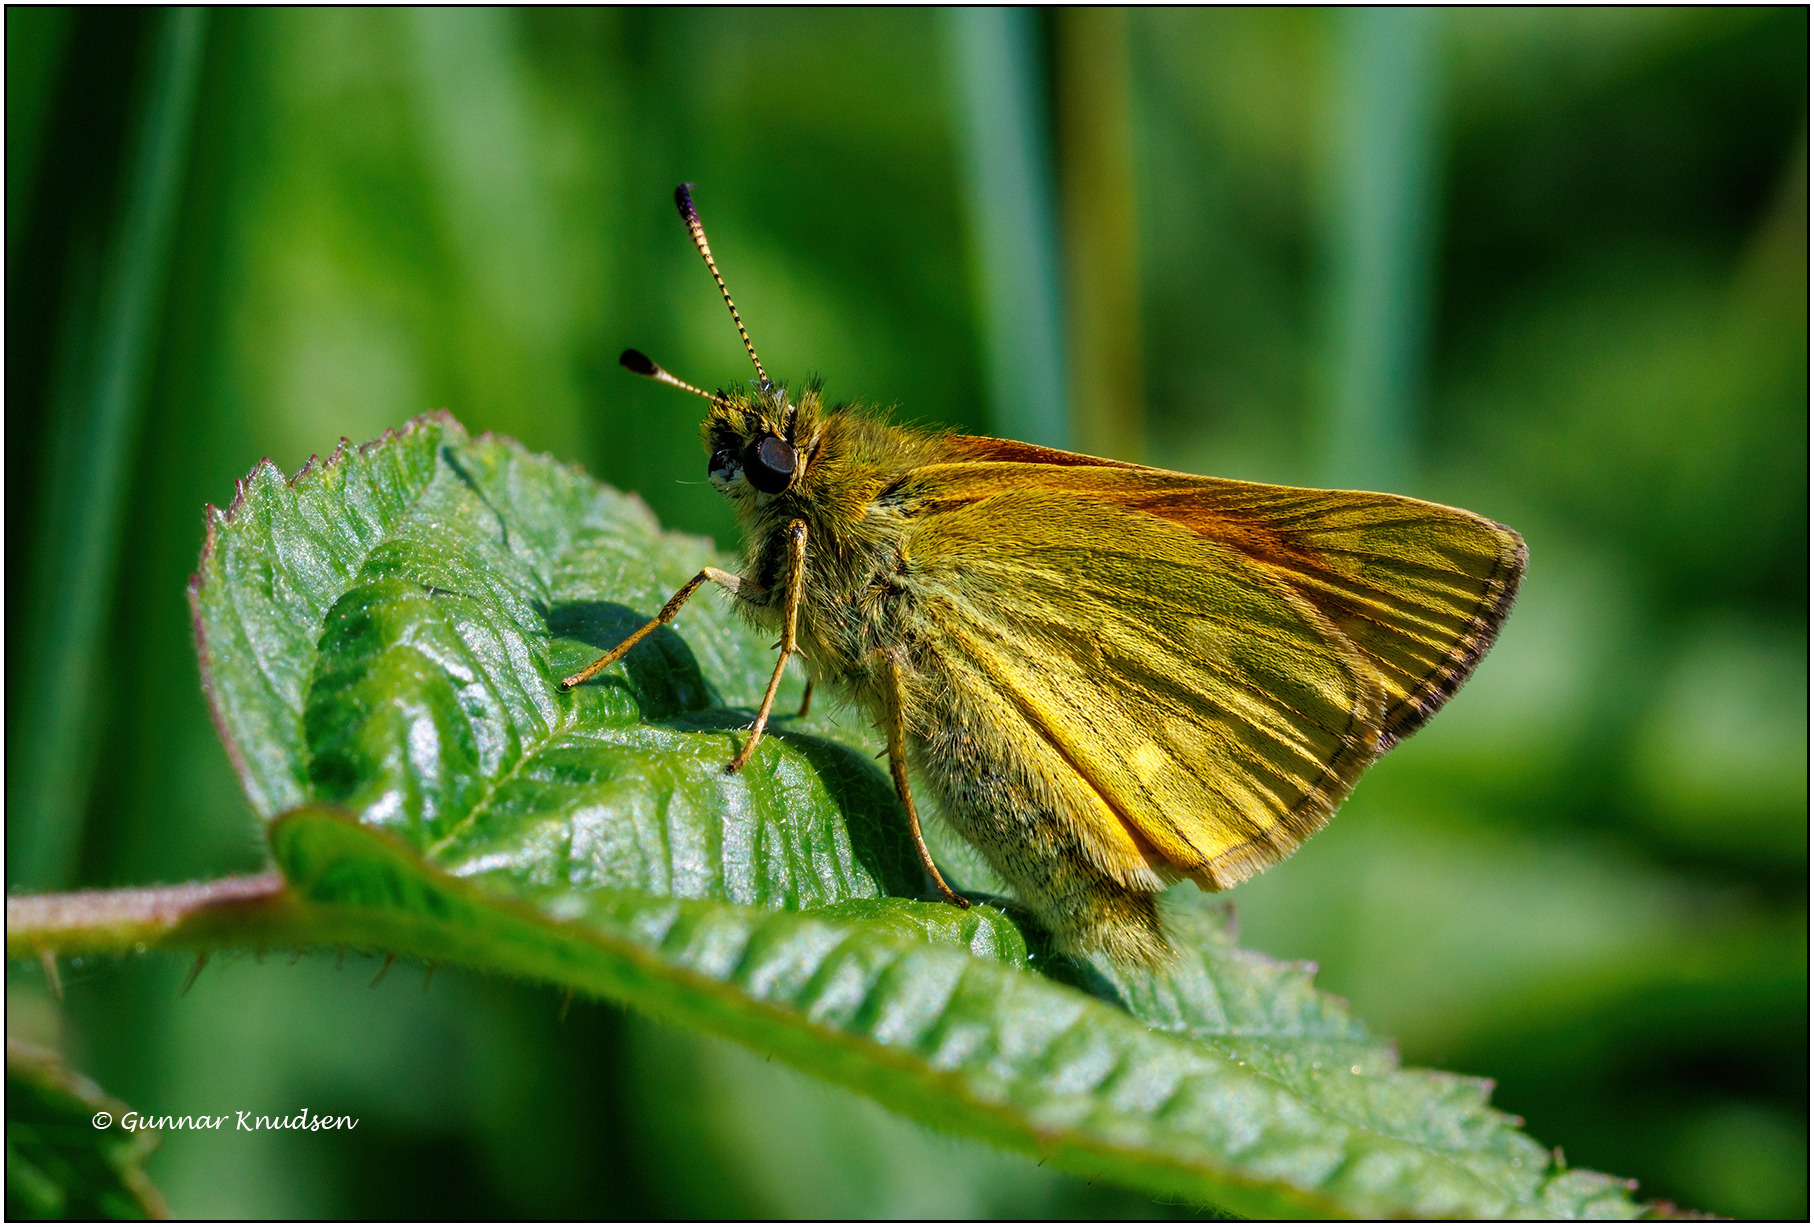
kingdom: Animalia
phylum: Arthropoda
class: Insecta
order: Lepidoptera
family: Hesperiidae
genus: Ochlodes
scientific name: Ochlodes venata
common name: Stor bredpande
